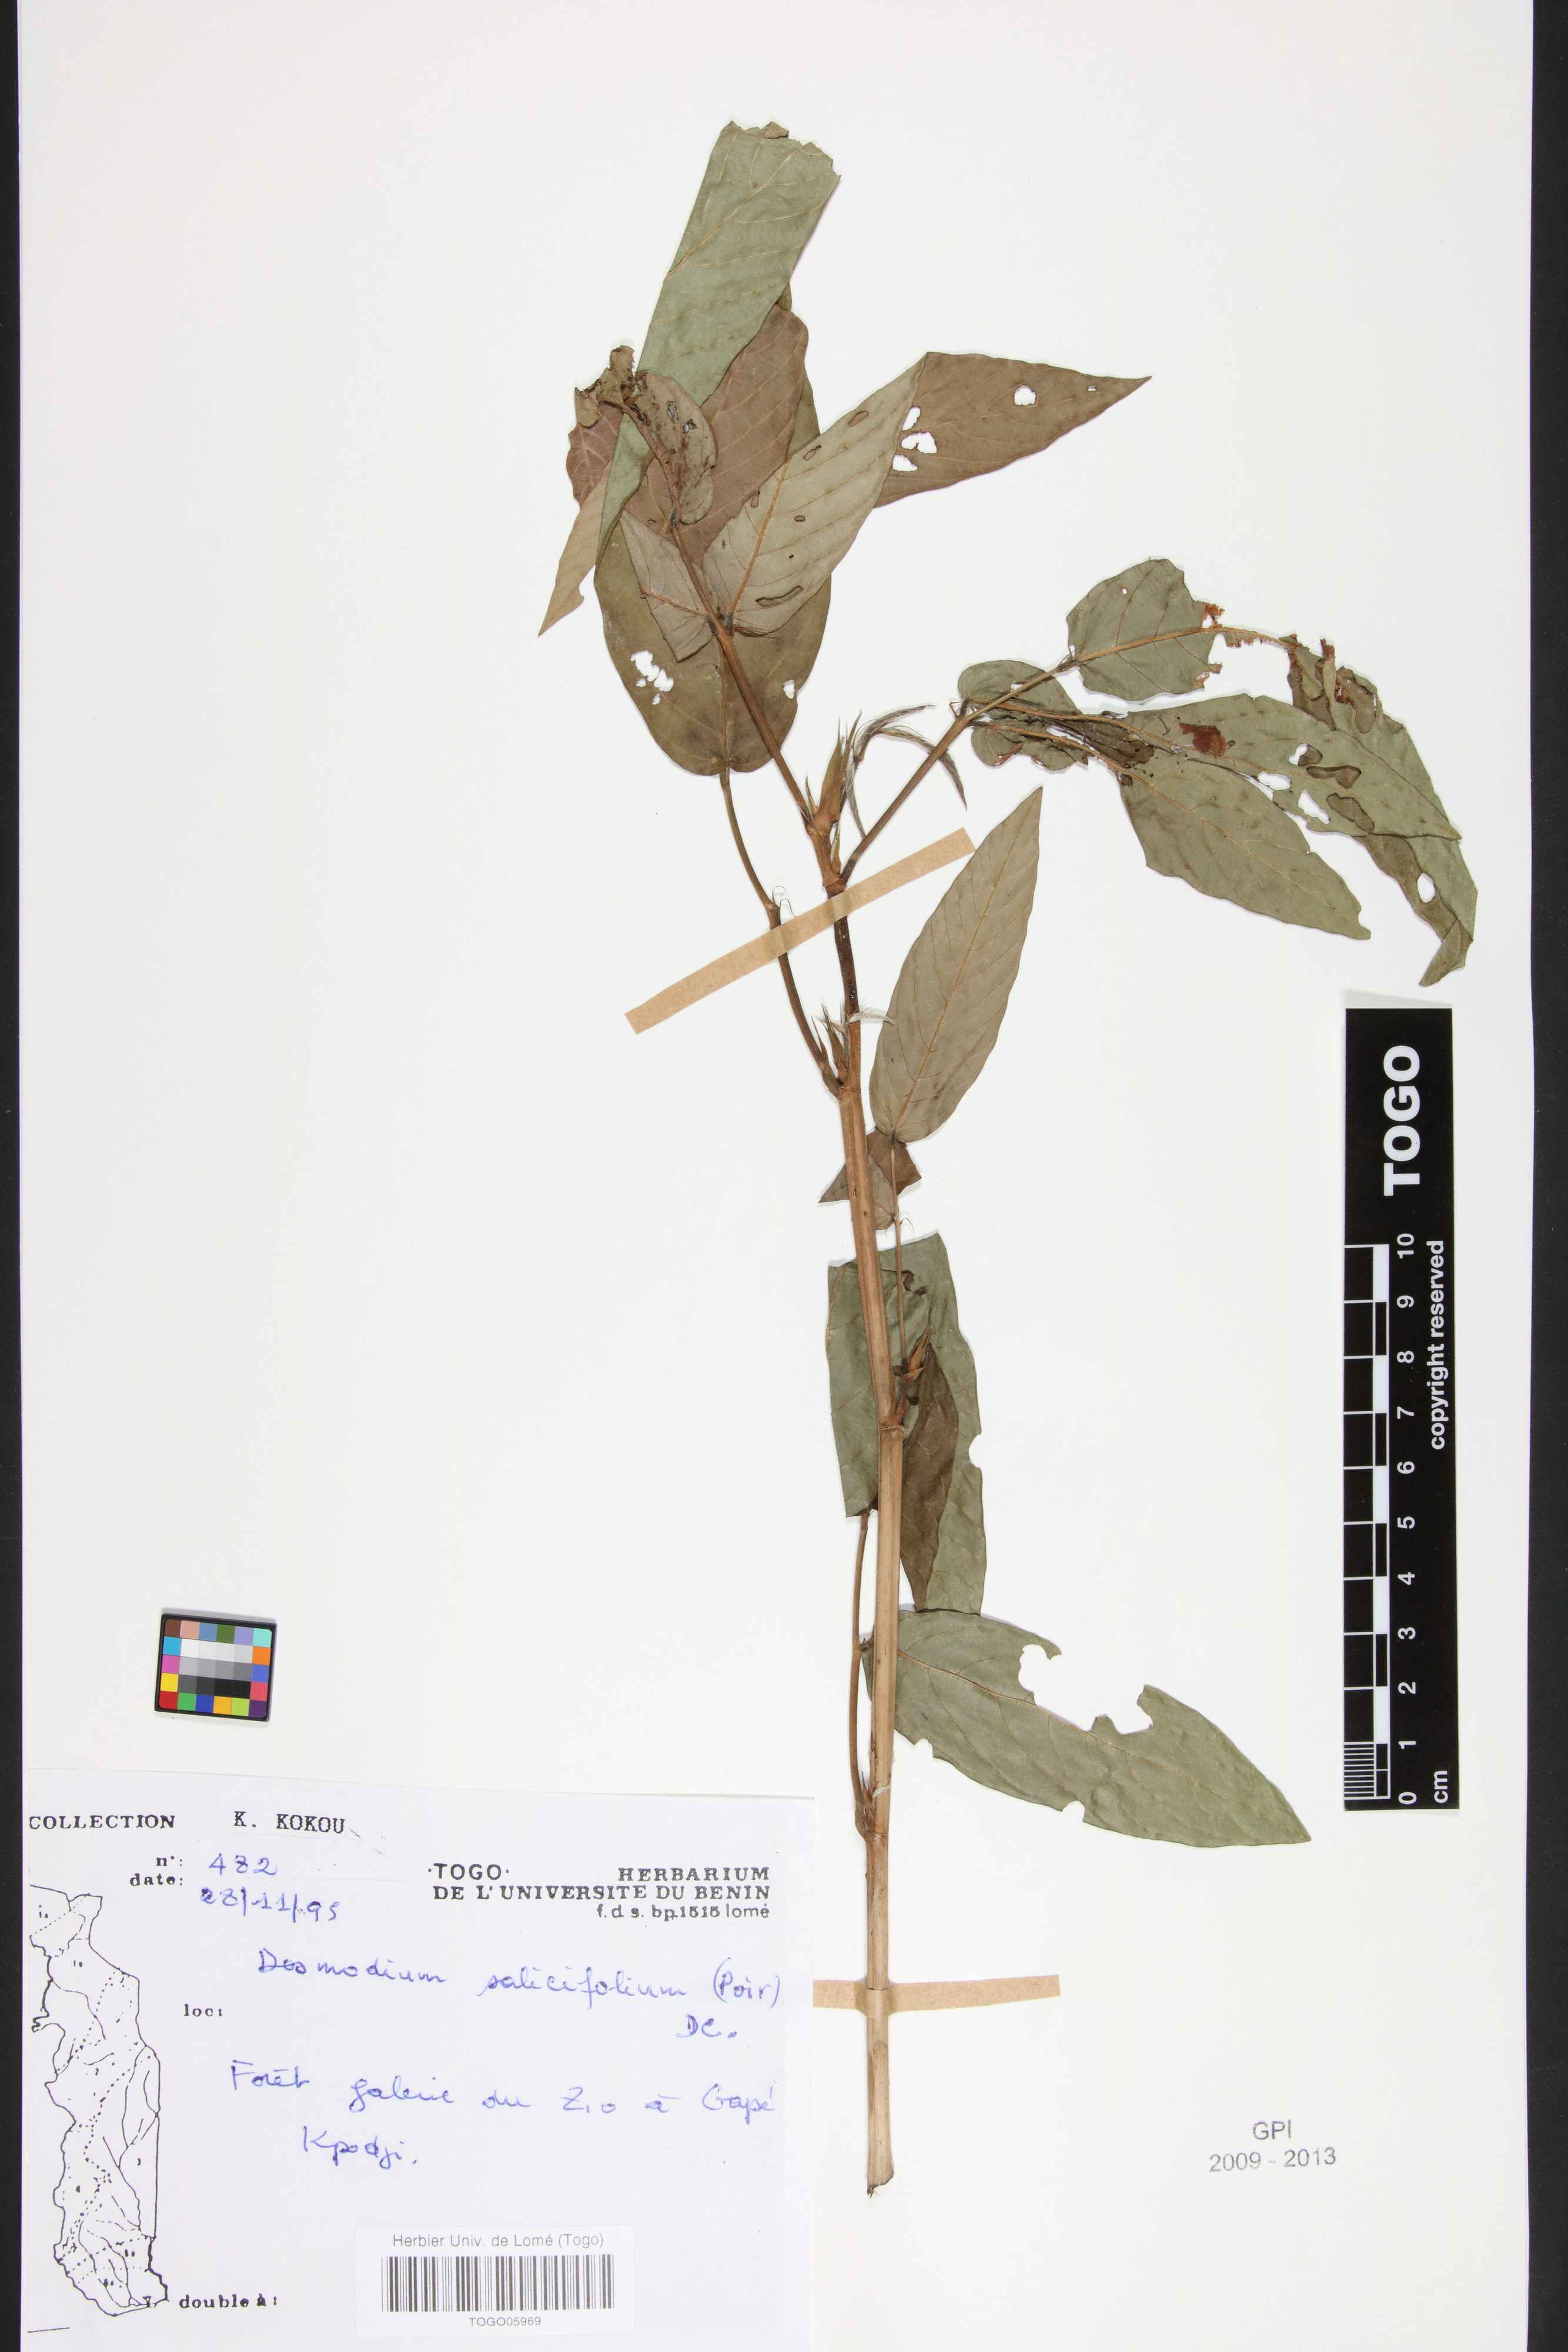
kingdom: Plantae
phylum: Tracheophyta
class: Magnoliopsida
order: Fabales
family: Fabaceae
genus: Pleurolobus
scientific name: Pleurolobus salicifolius
